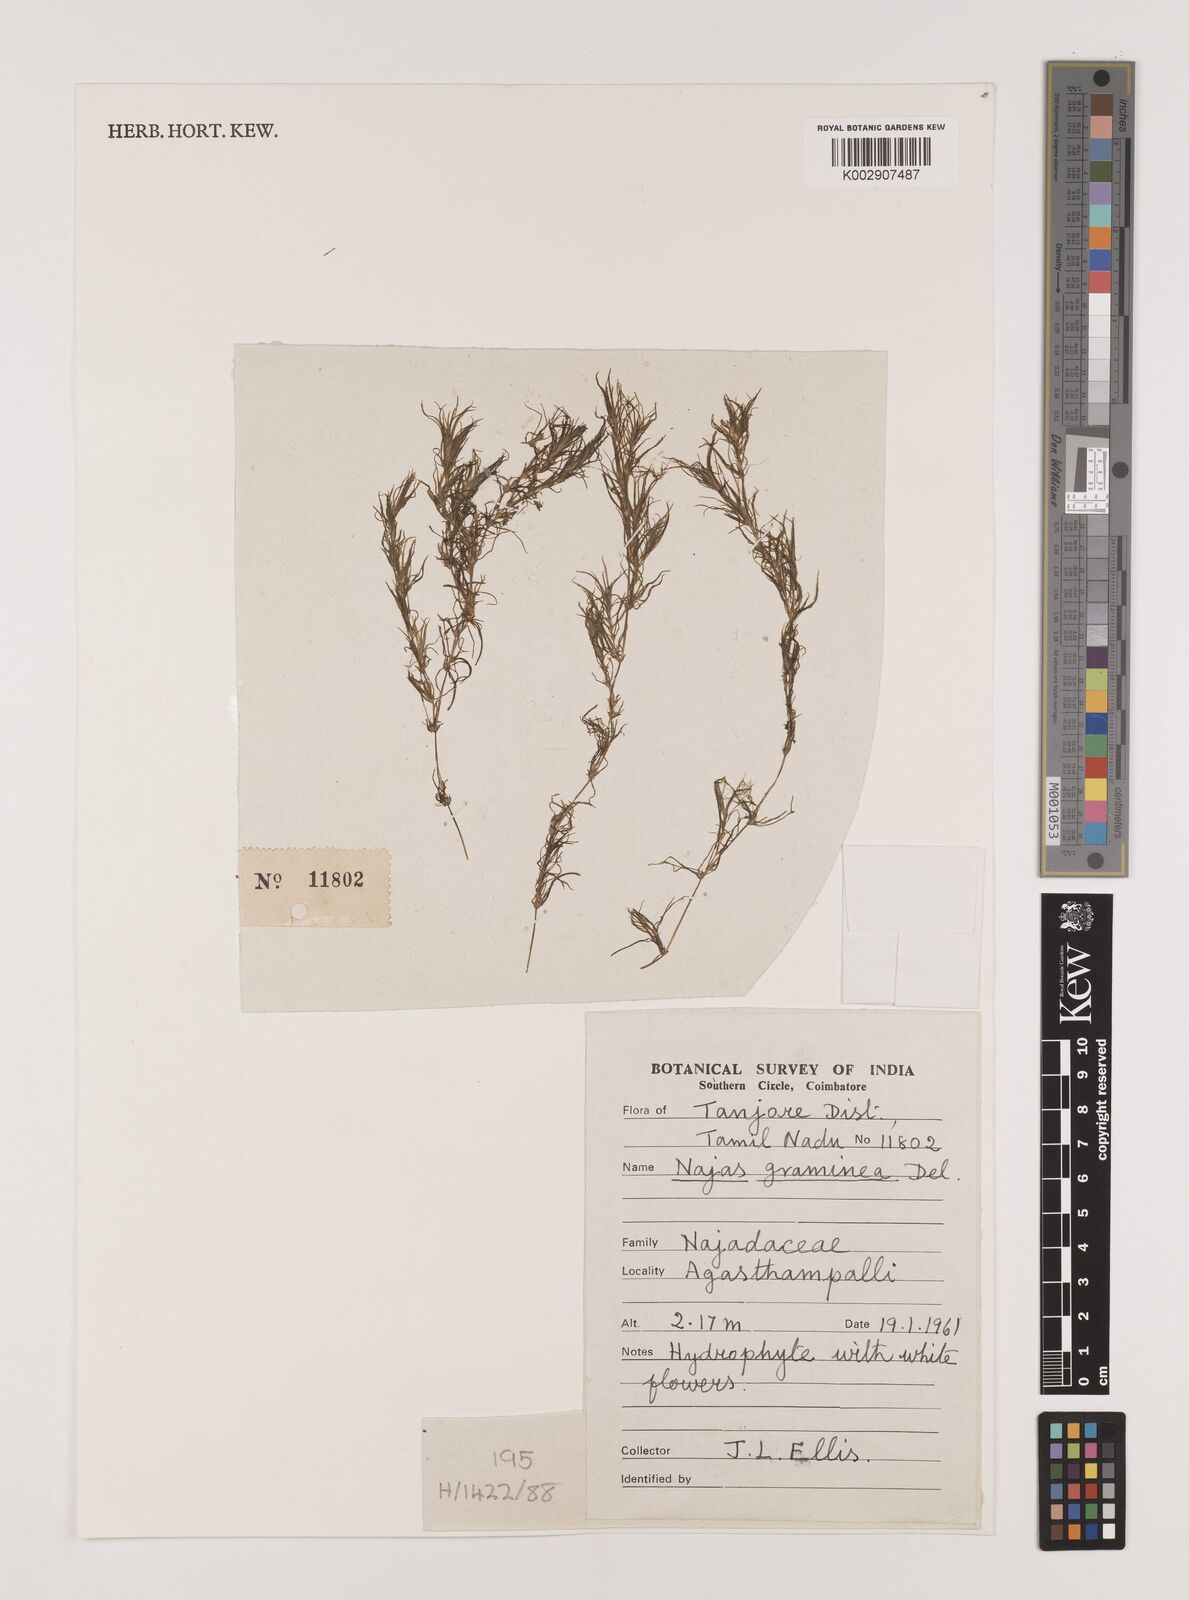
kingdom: Plantae
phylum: Tracheophyta
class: Liliopsida
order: Alismatales
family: Hydrocharitaceae
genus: Najas
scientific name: Najas graminea
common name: Ricefield waternymph
